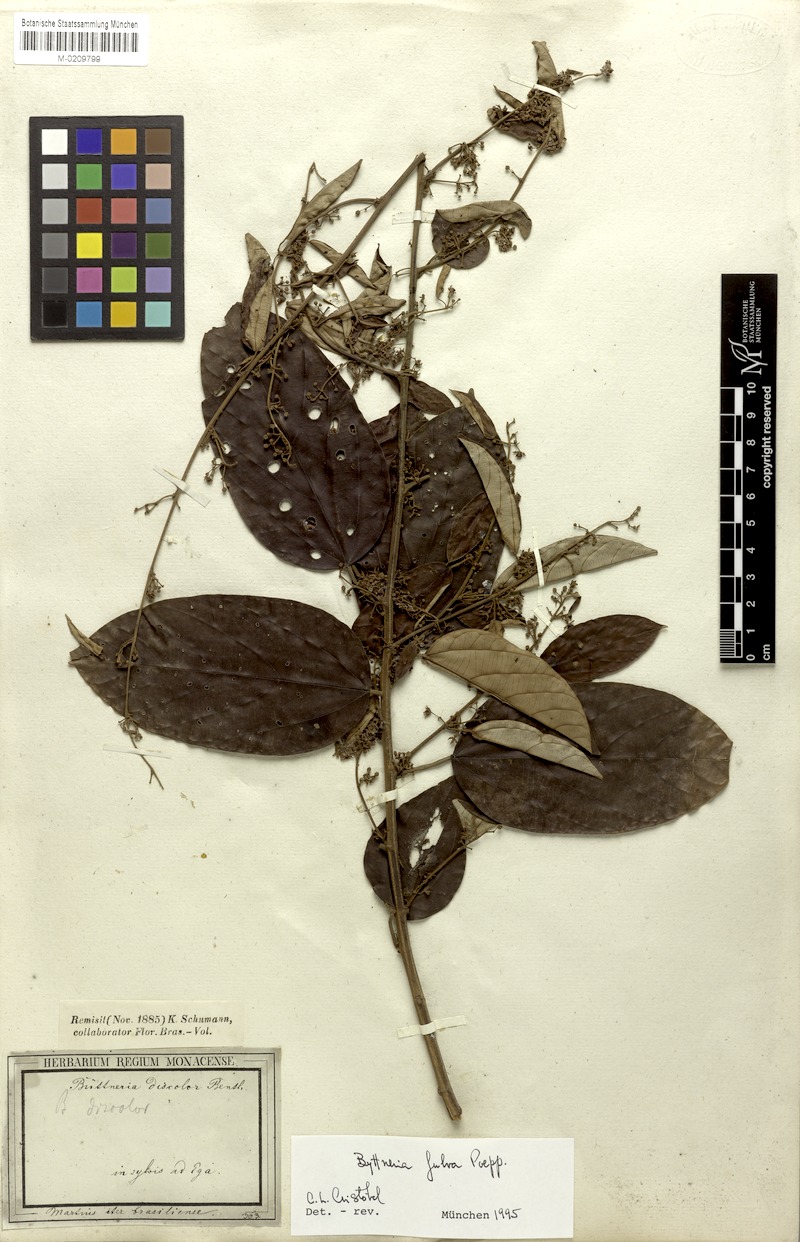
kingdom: Plantae
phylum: Tracheophyta
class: Magnoliopsida
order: Malvales
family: Malvaceae
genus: Byttneria
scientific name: Byttneria fulva
